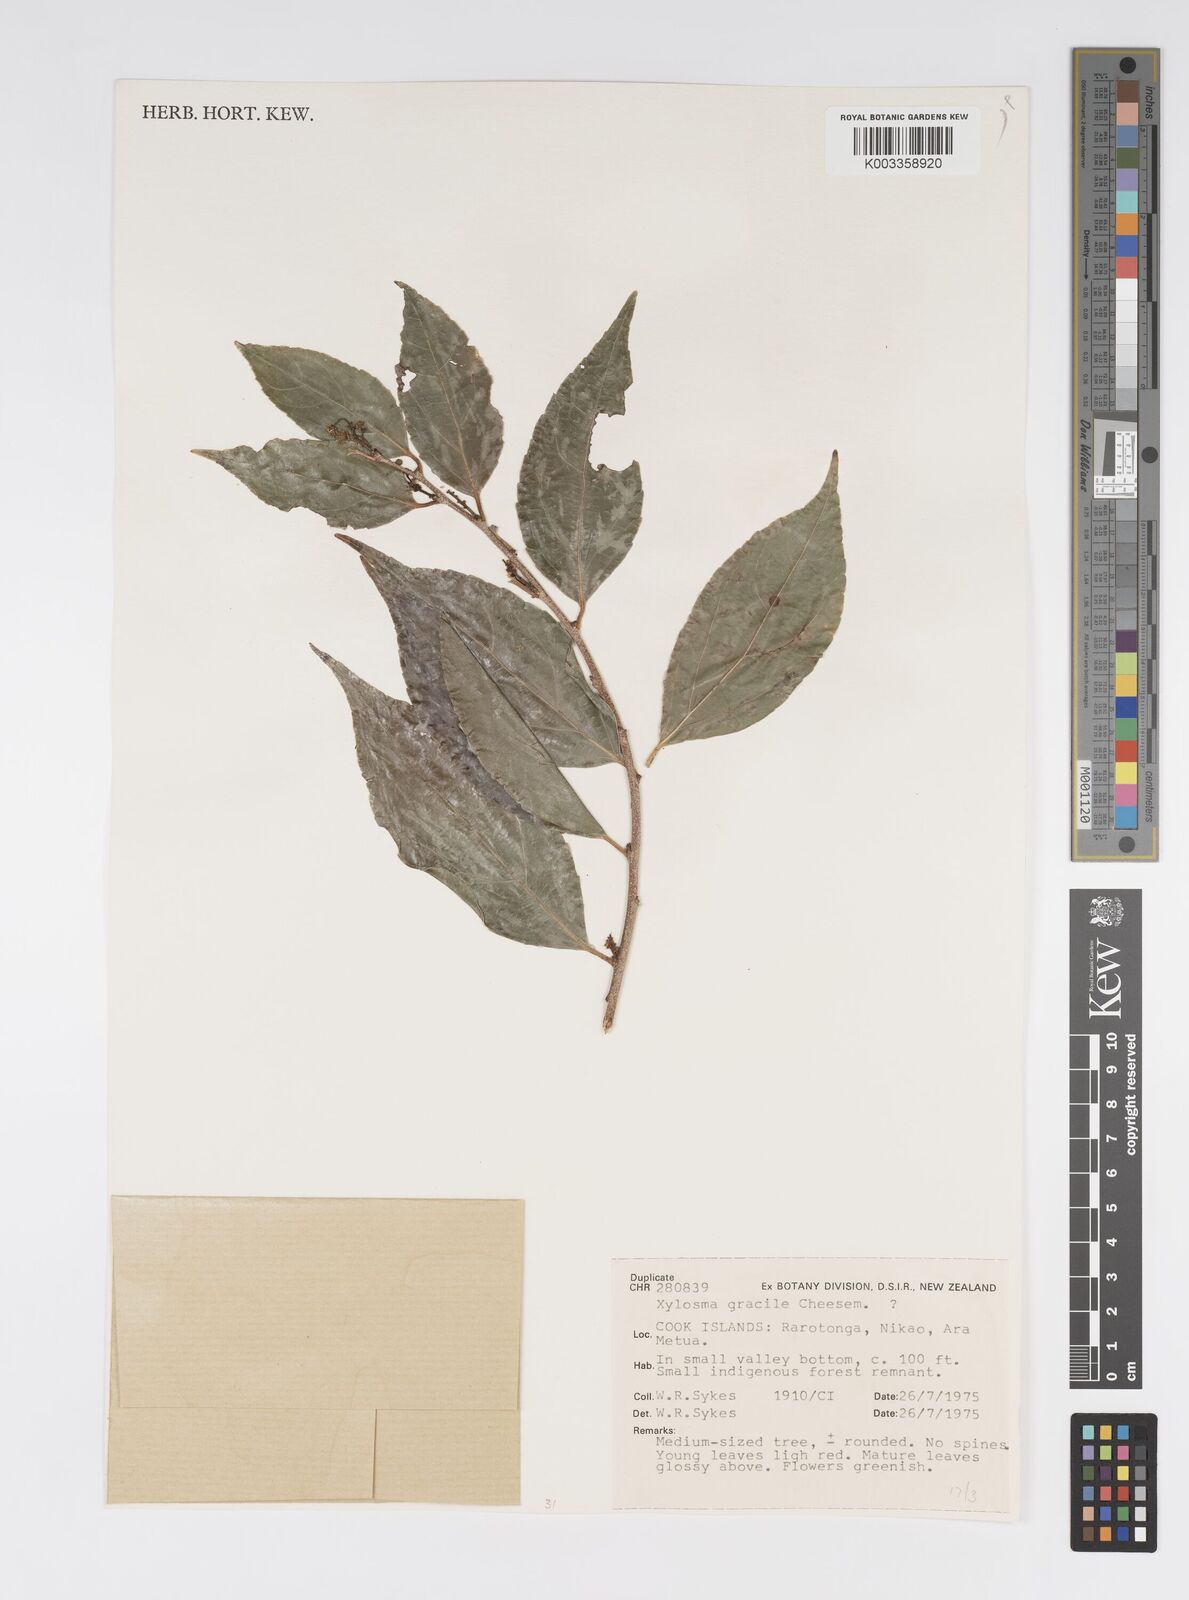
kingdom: Plantae
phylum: Tracheophyta
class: Magnoliopsida
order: Malpighiales
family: Salicaceae
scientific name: Salicaceae
